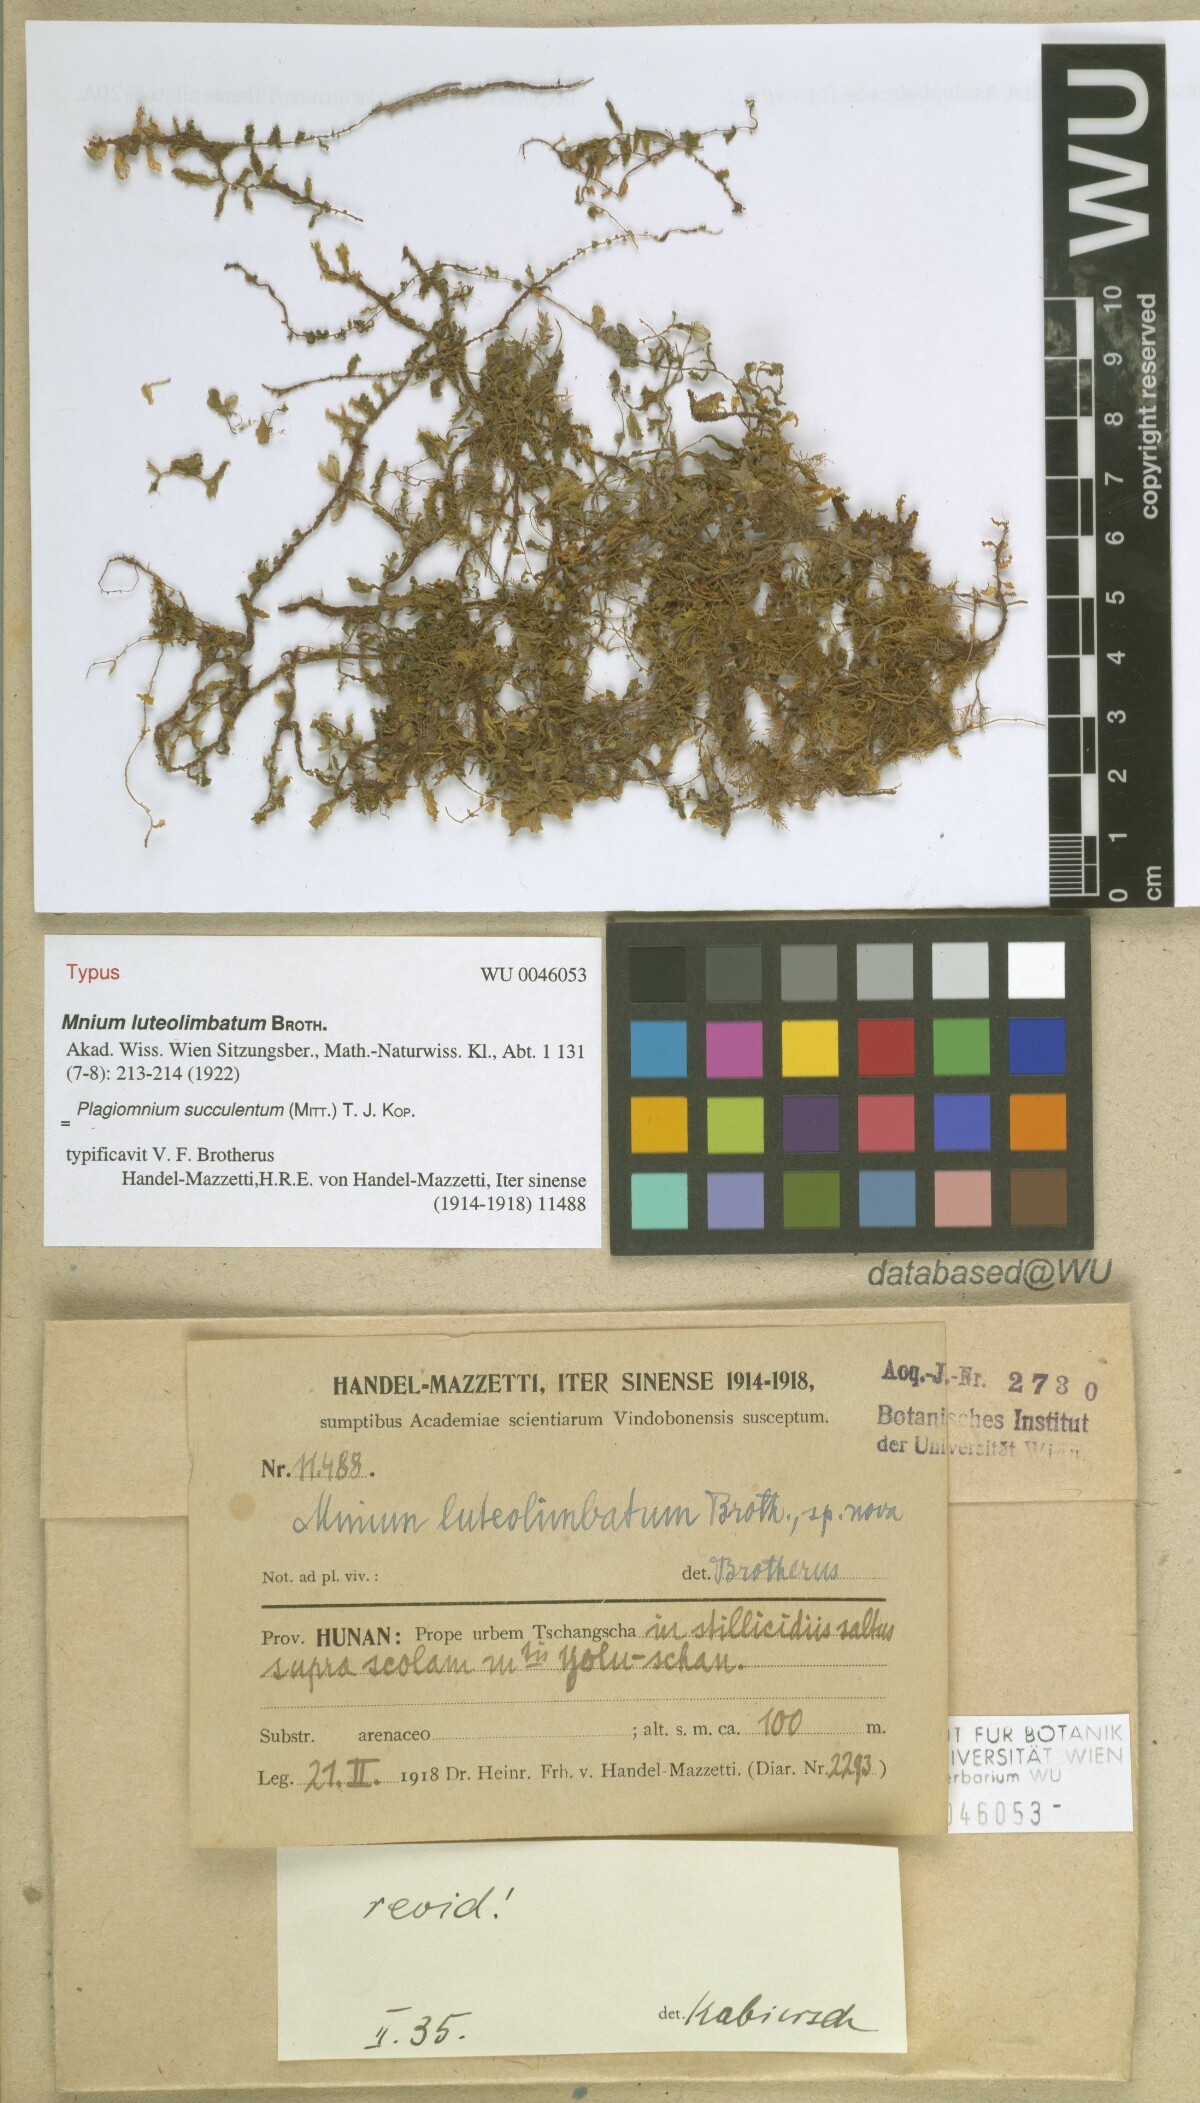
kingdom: Plantae
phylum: Bryophyta
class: Bryopsida
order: Bryales
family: Mniaceae
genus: Plagiomnium
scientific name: Plagiomnium succulentum
